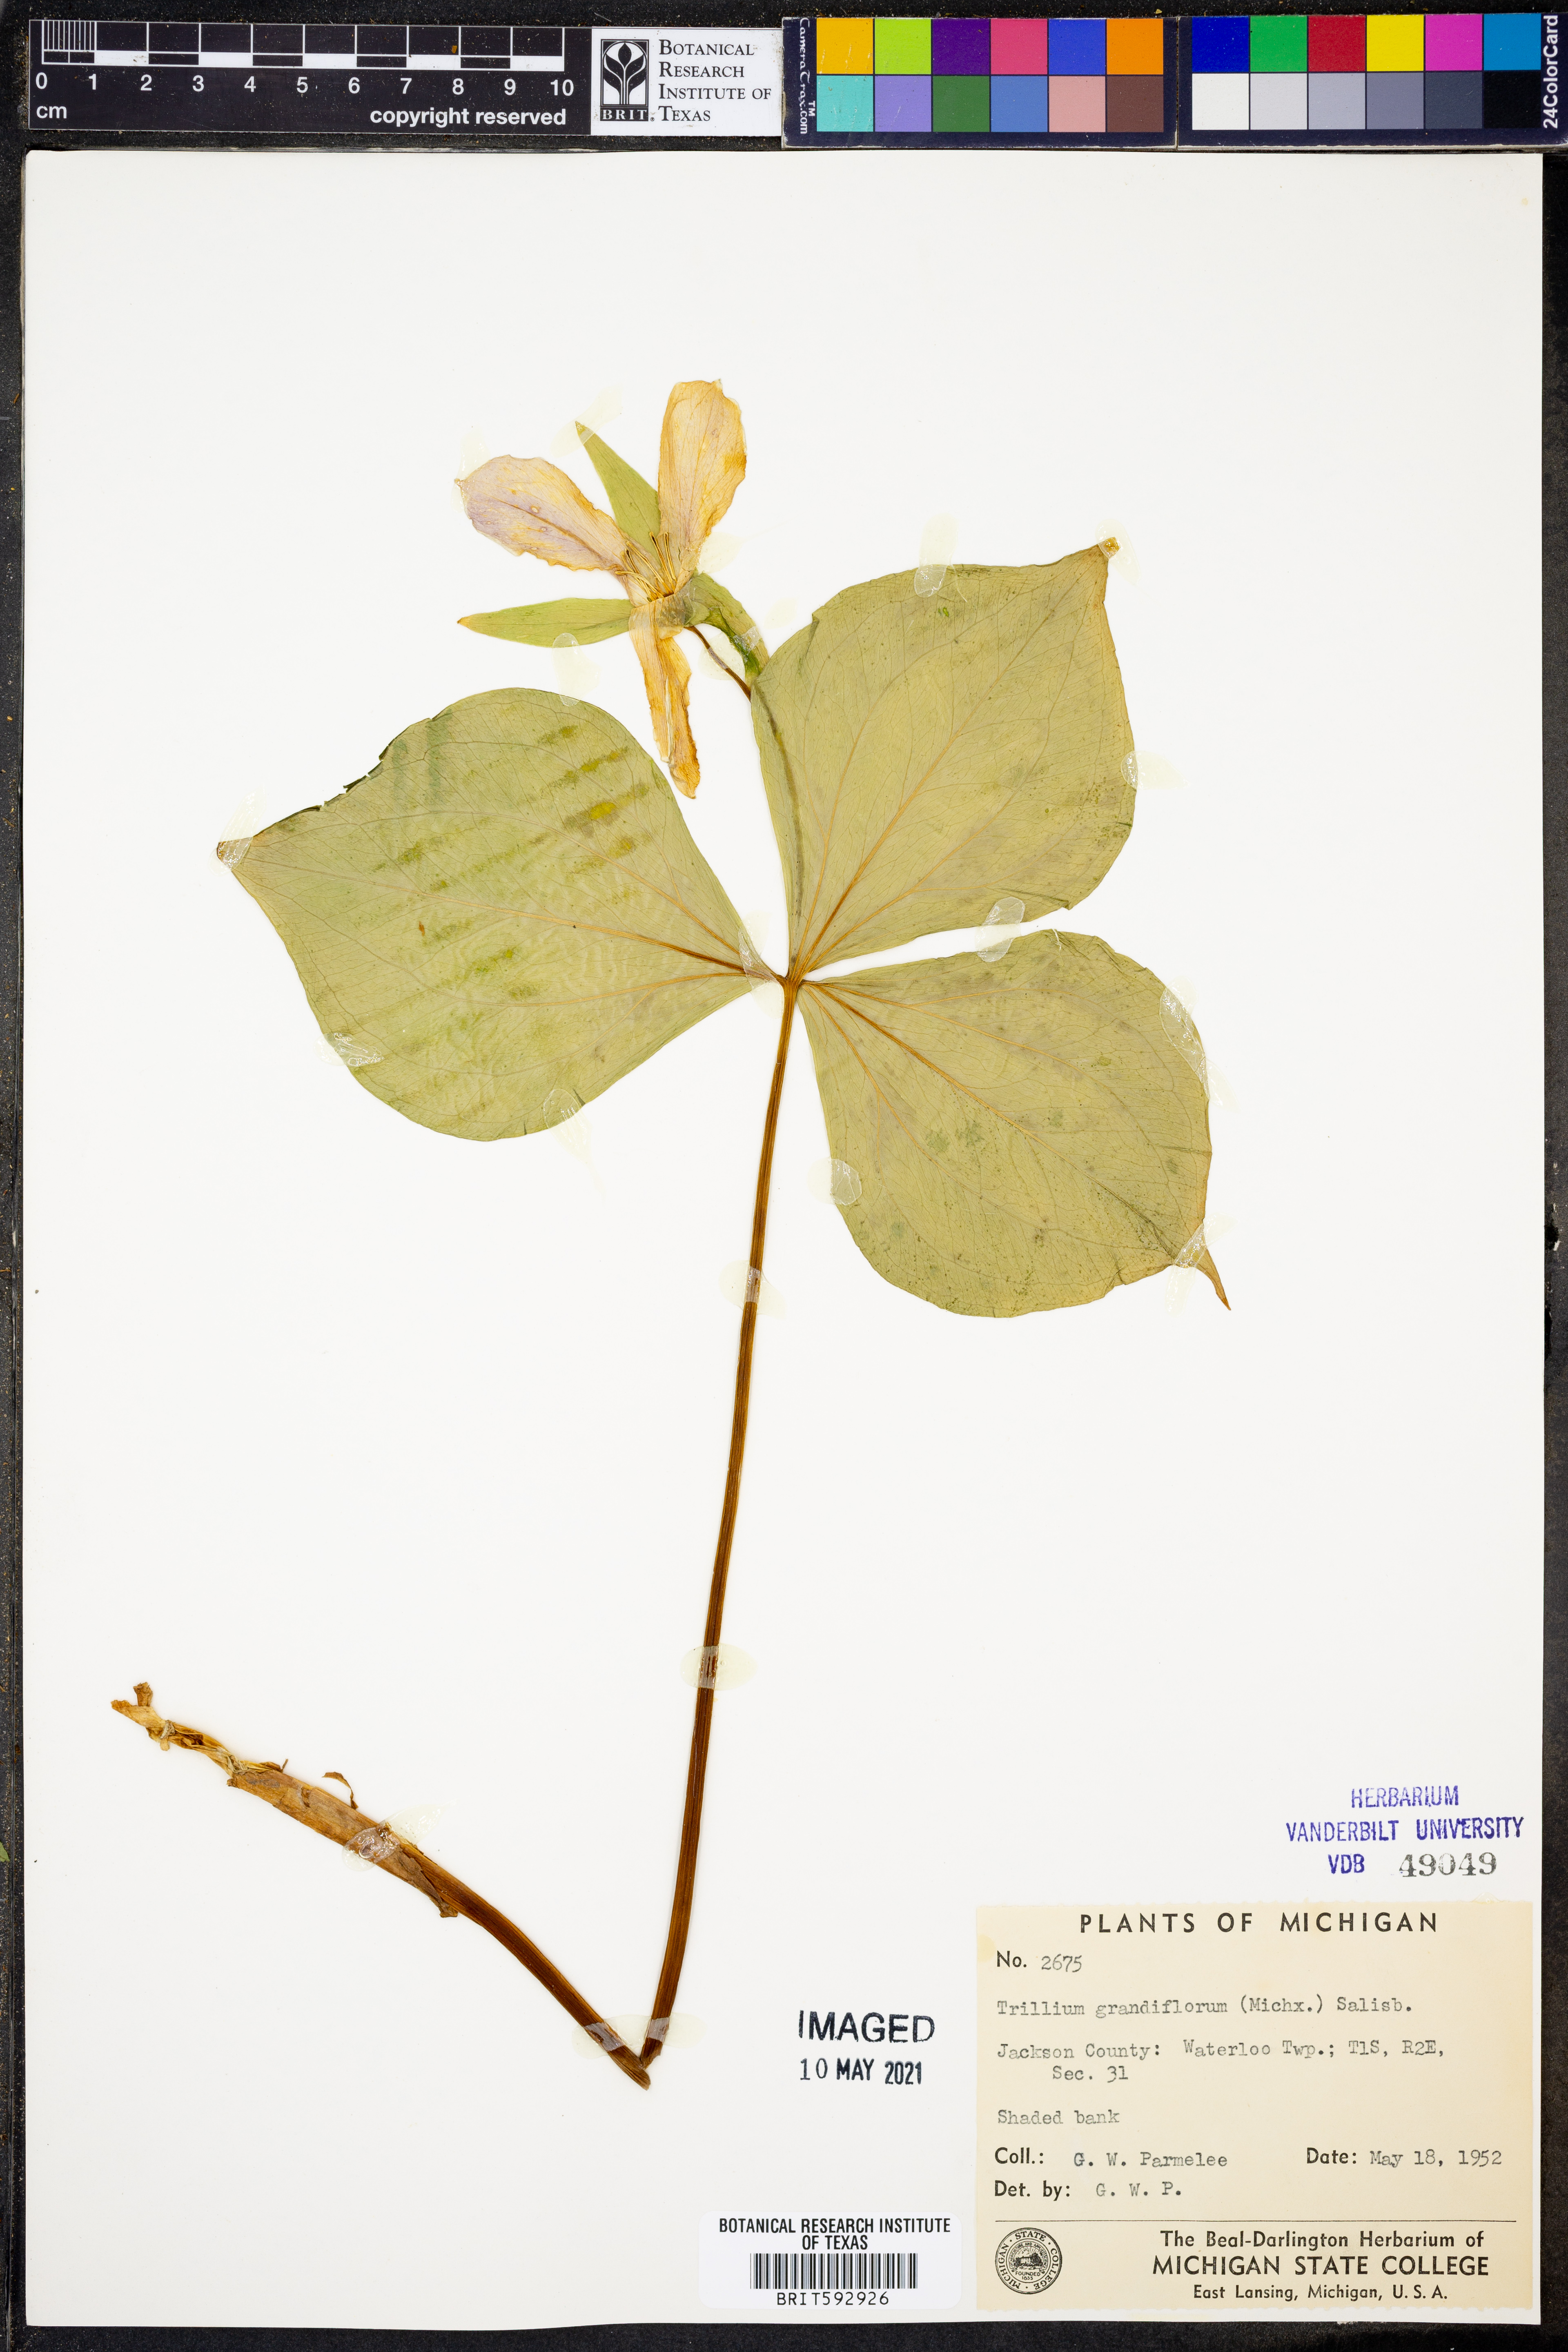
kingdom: Plantae
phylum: Tracheophyta
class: Liliopsida
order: Liliales
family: Melanthiaceae
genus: Trillium
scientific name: Trillium grandiflorum
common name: Great white trillium
